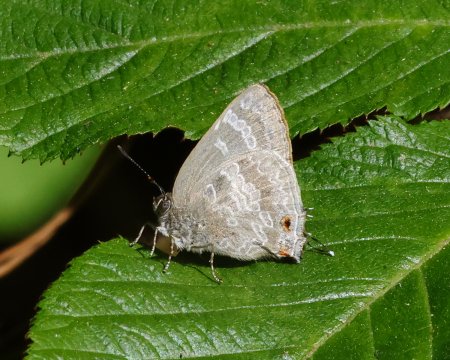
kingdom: Animalia
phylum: Arthropoda
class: Insecta
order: Lepidoptera
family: Lycaenidae
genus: Contrafacia
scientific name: Contrafacia
